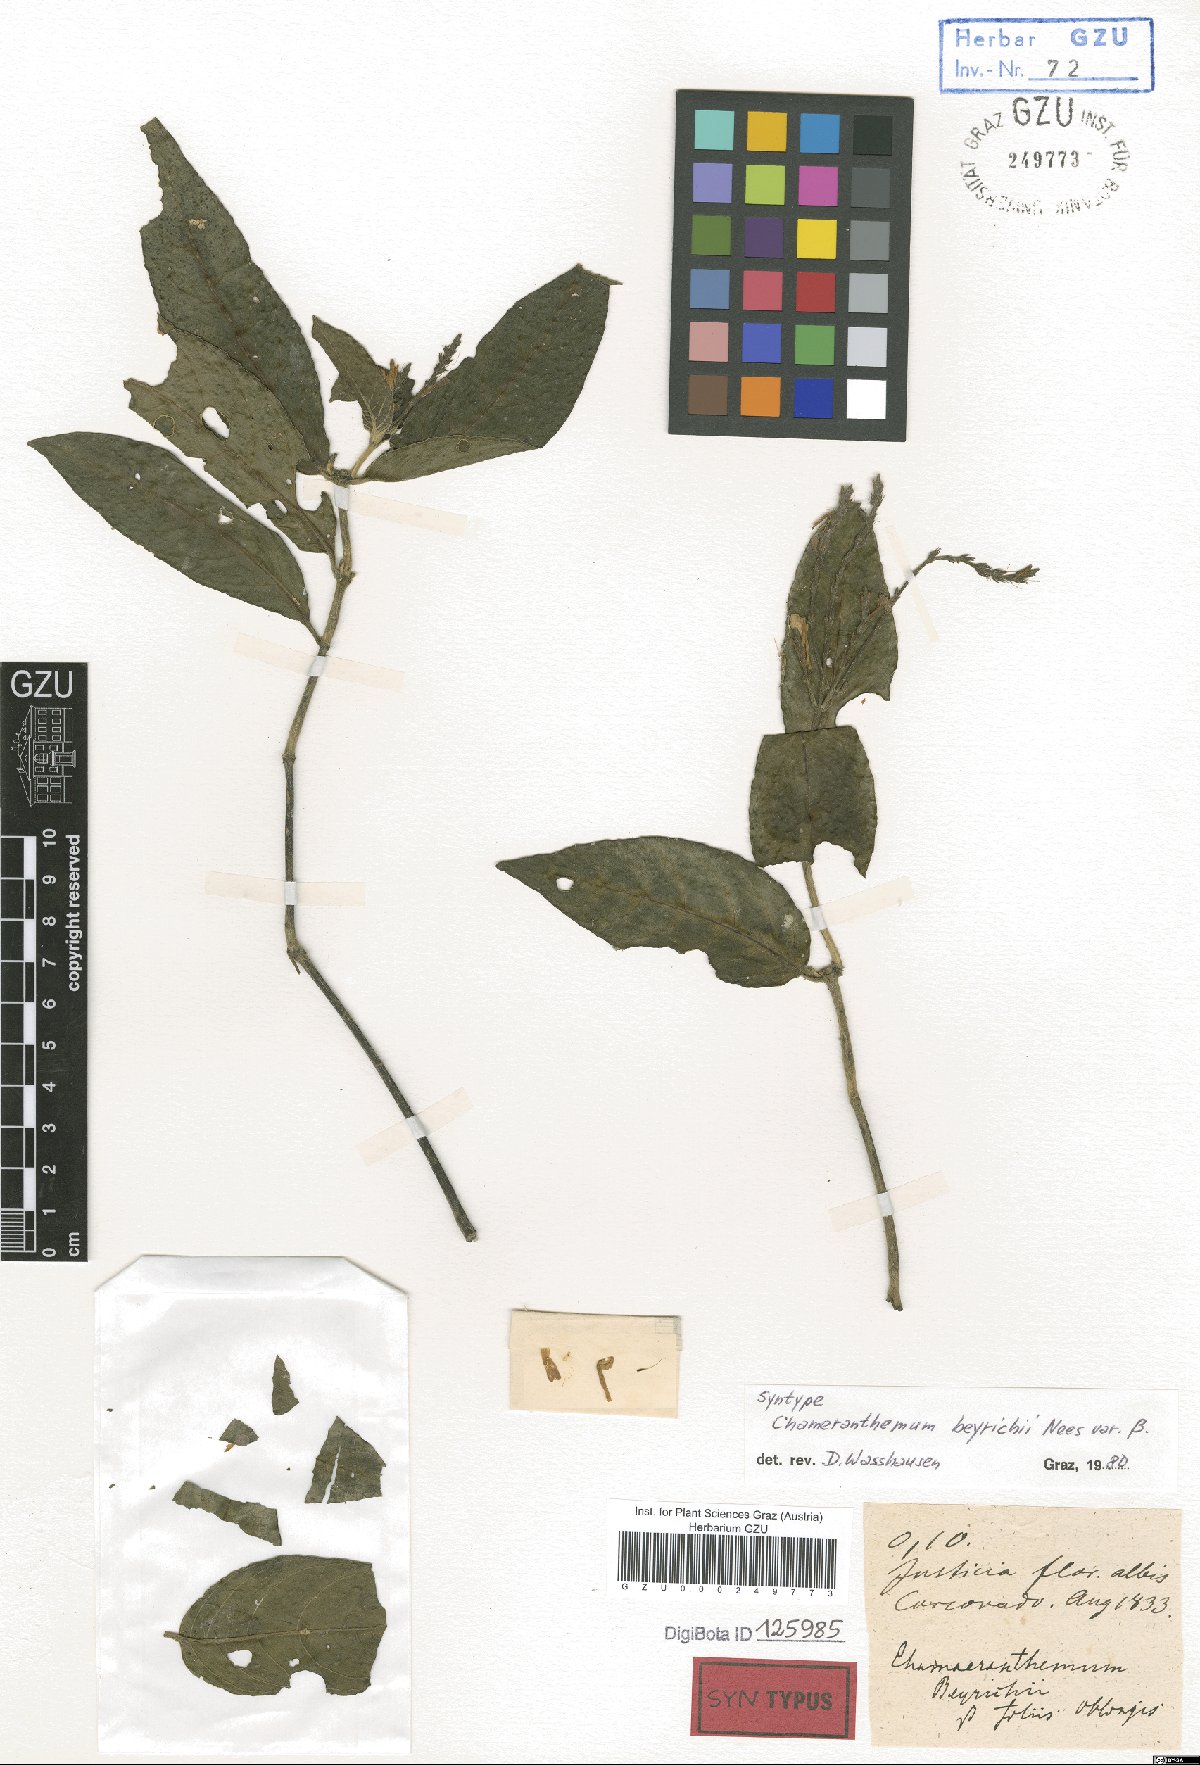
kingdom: Plantae
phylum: Tracheophyta
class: Magnoliopsida
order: Lamiales
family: Acanthaceae
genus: Chamaeranthemum
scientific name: Chamaeranthemum beyrichii
